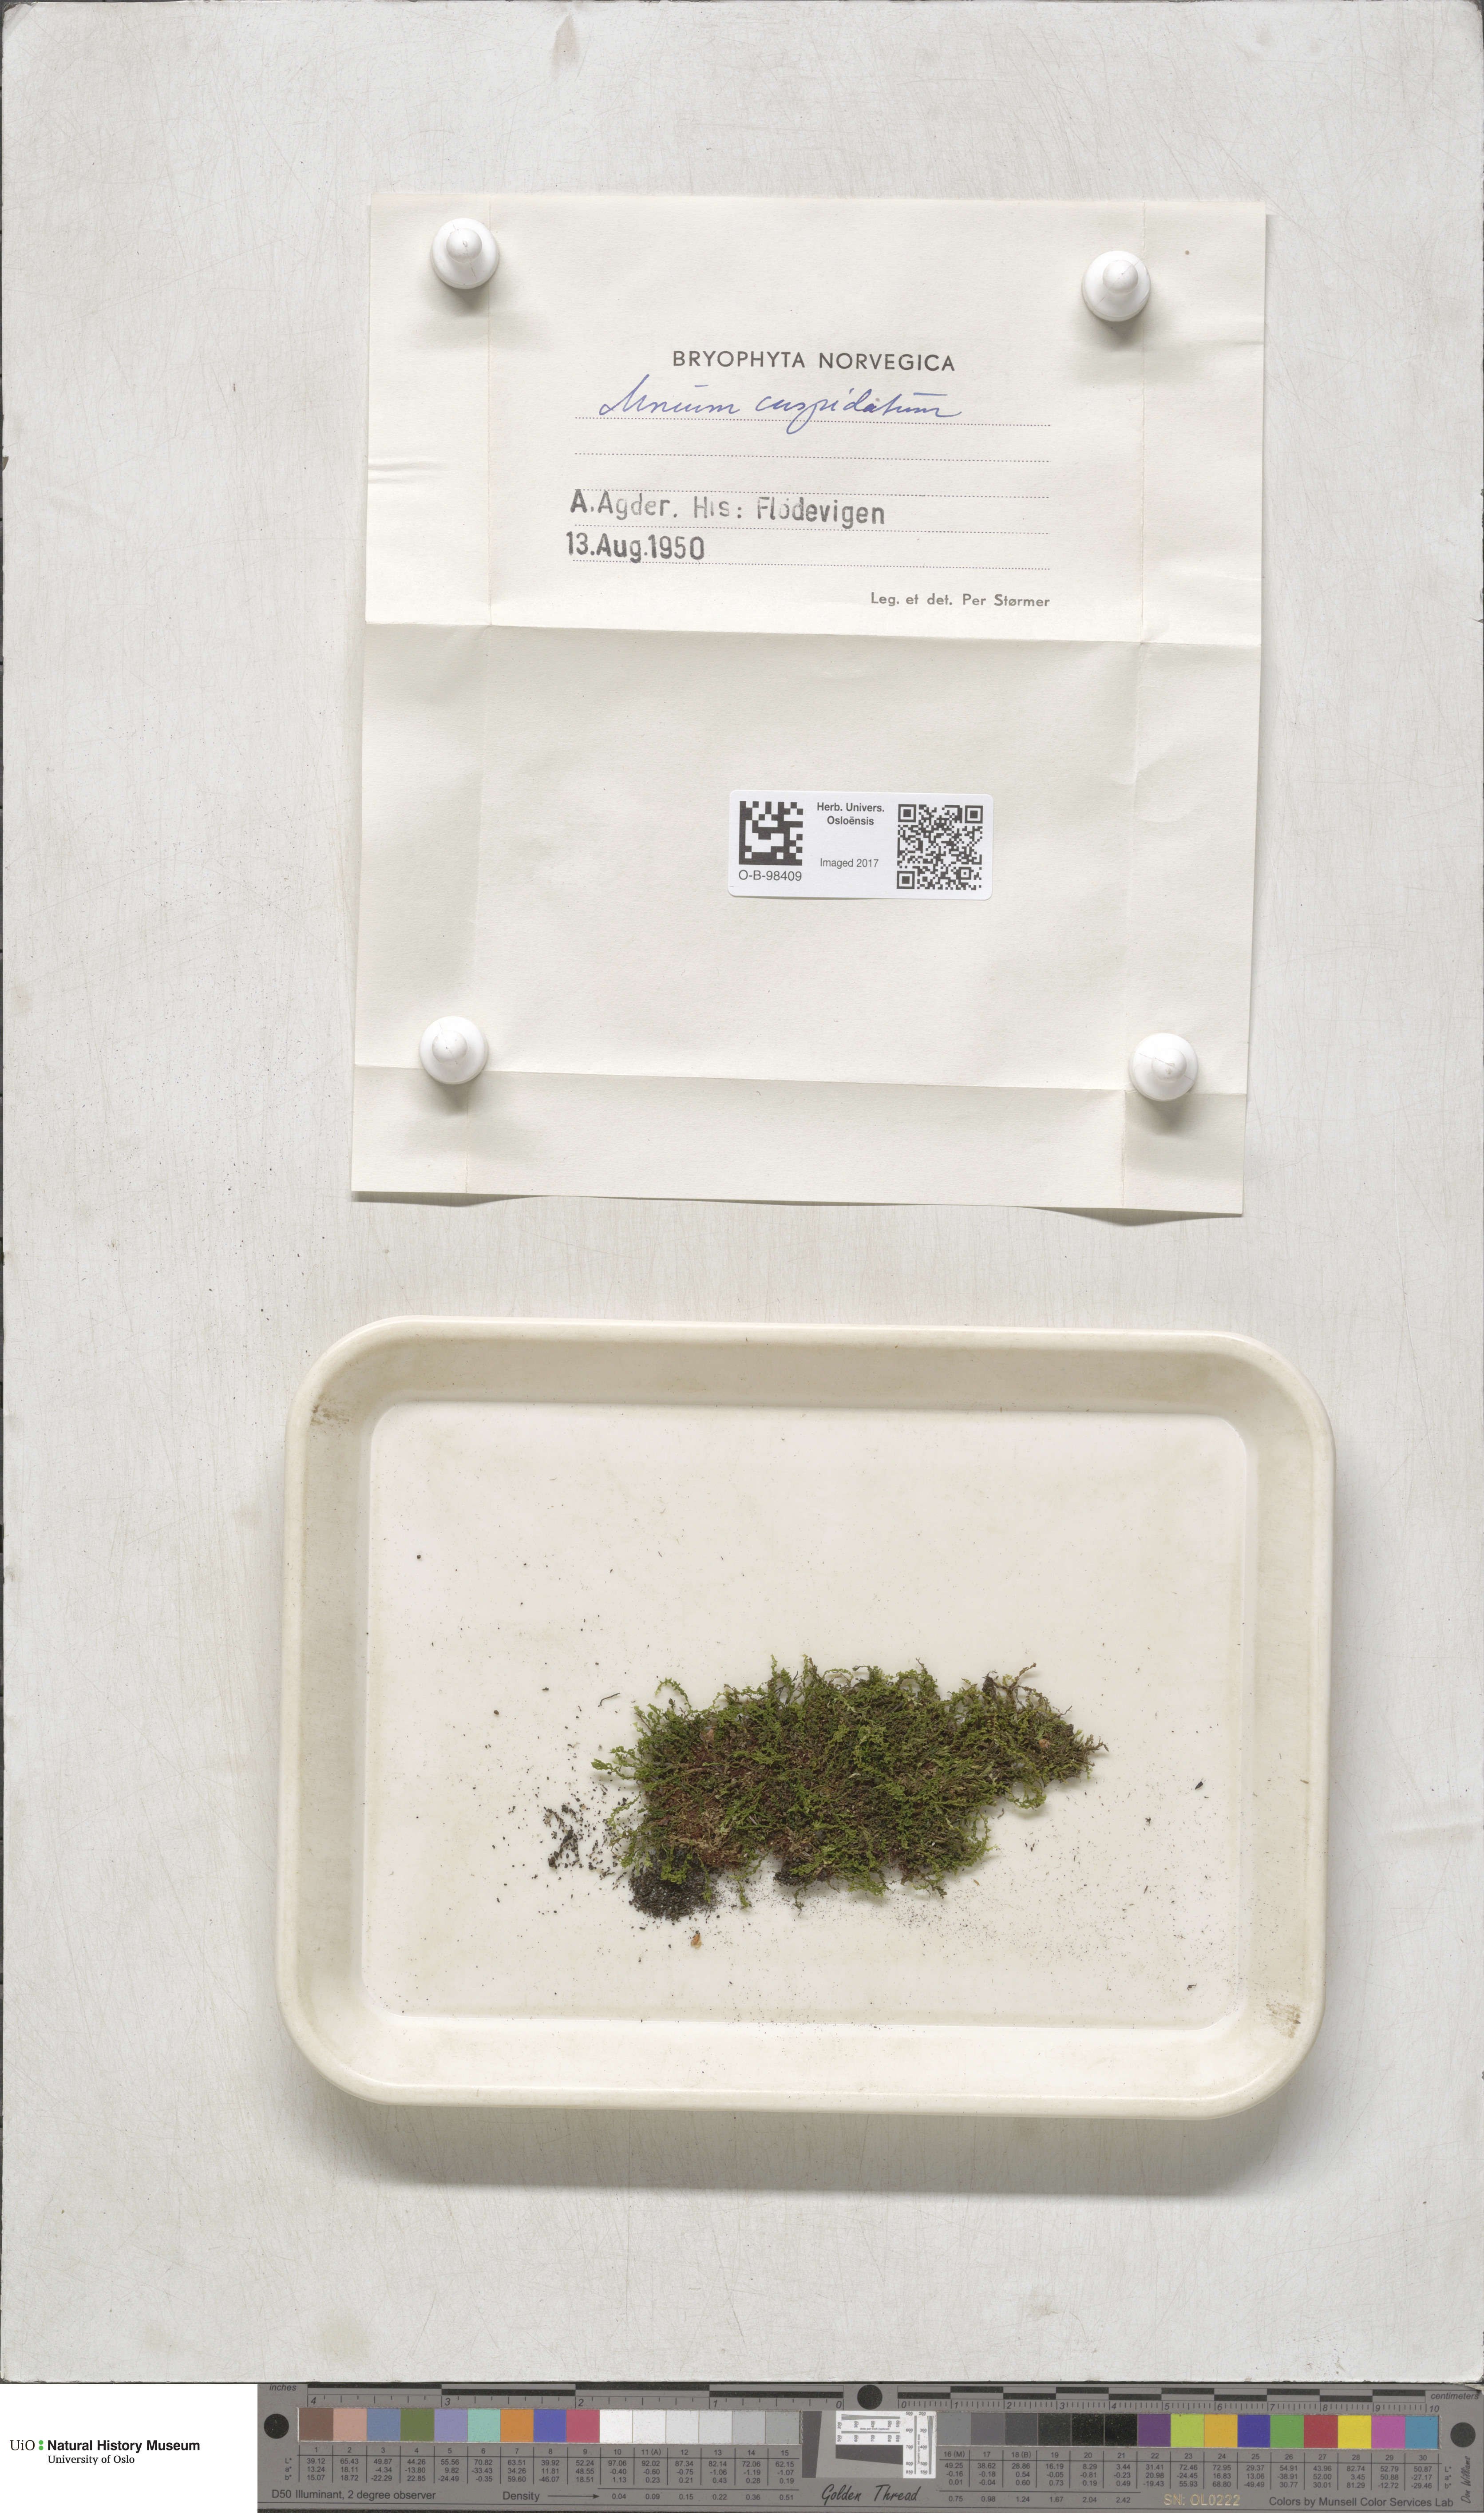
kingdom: Plantae
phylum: Bryophyta
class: Bryopsida
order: Bryales
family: Mniaceae
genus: Plagiomnium
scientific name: Plagiomnium cuspidatum
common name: Woodsy leafy moss
